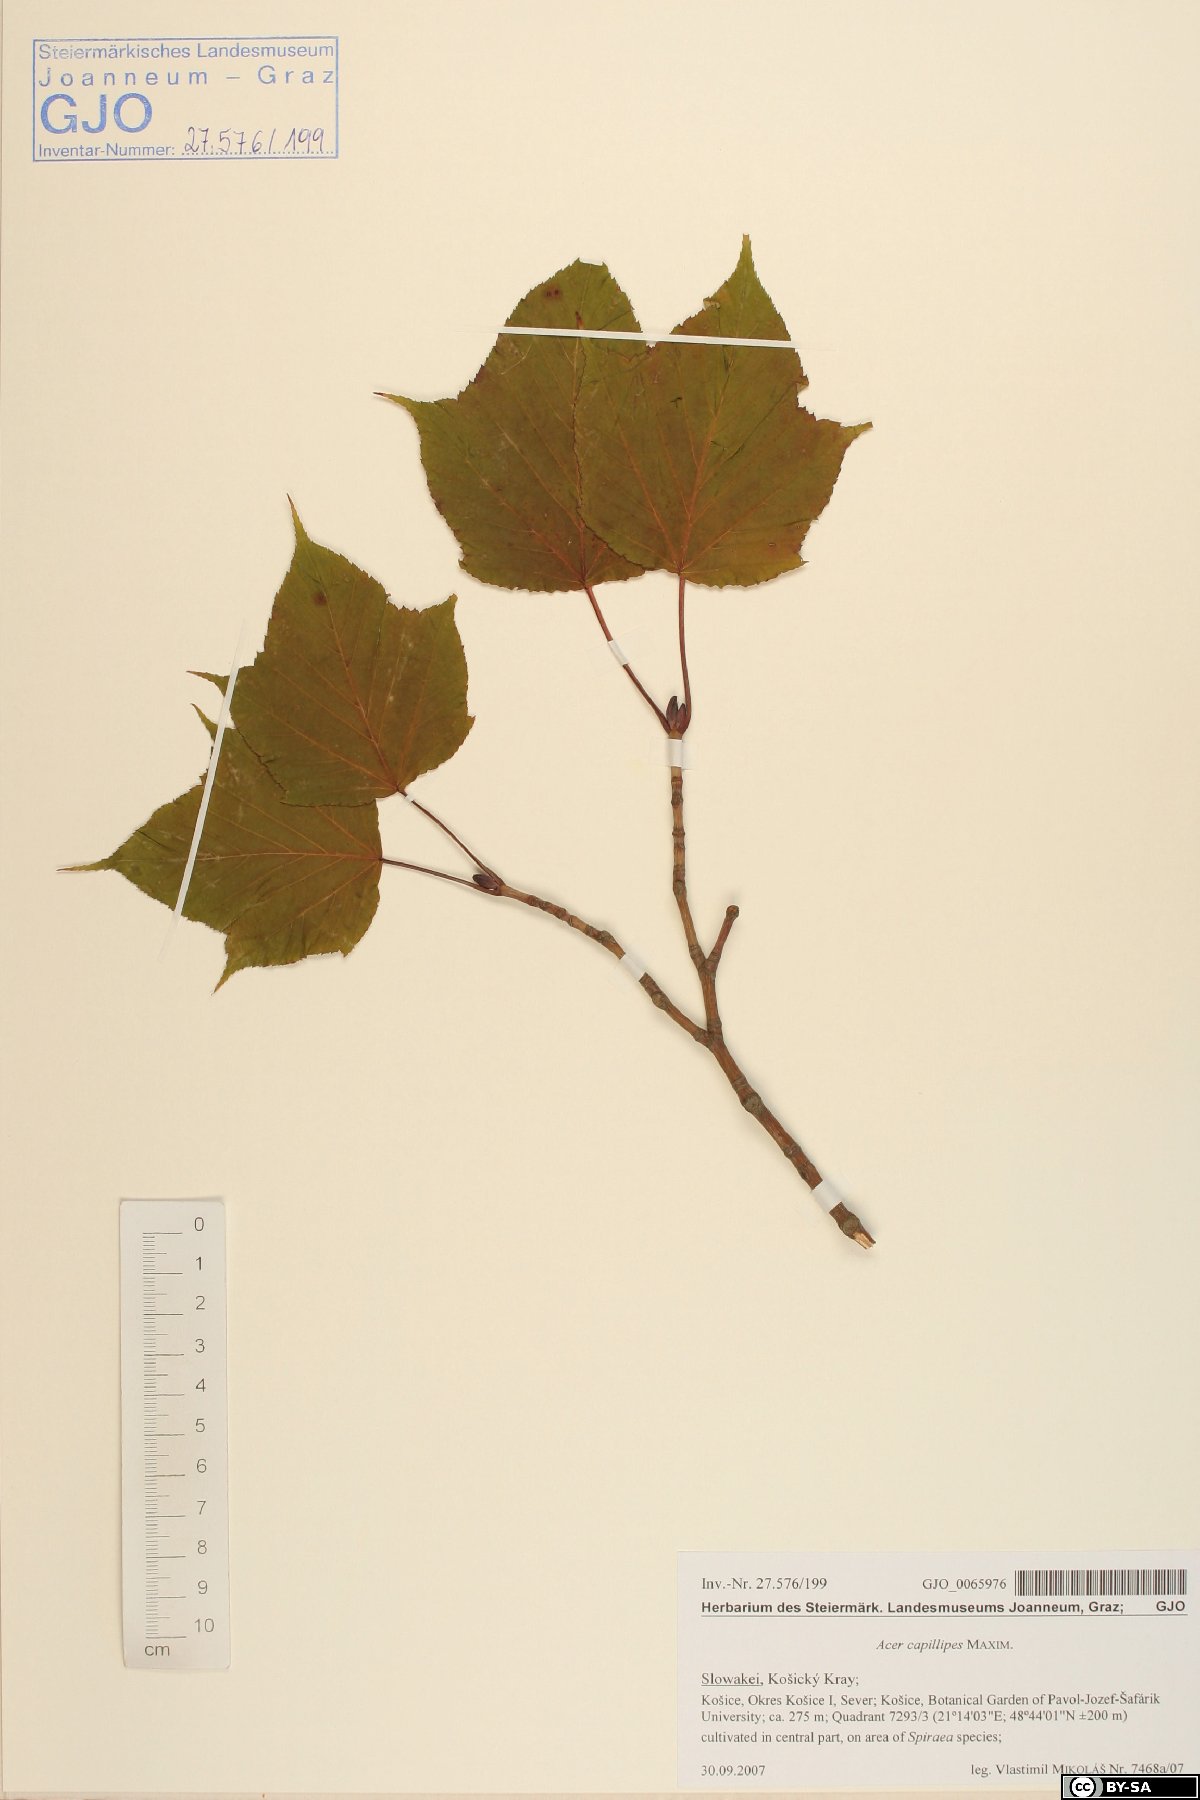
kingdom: Plantae
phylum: Tracheophyta
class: Magnoliopsida
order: Sapindales
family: Sapindaceae
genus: Acer
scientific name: Acer capillipes
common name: Kyushu maple
